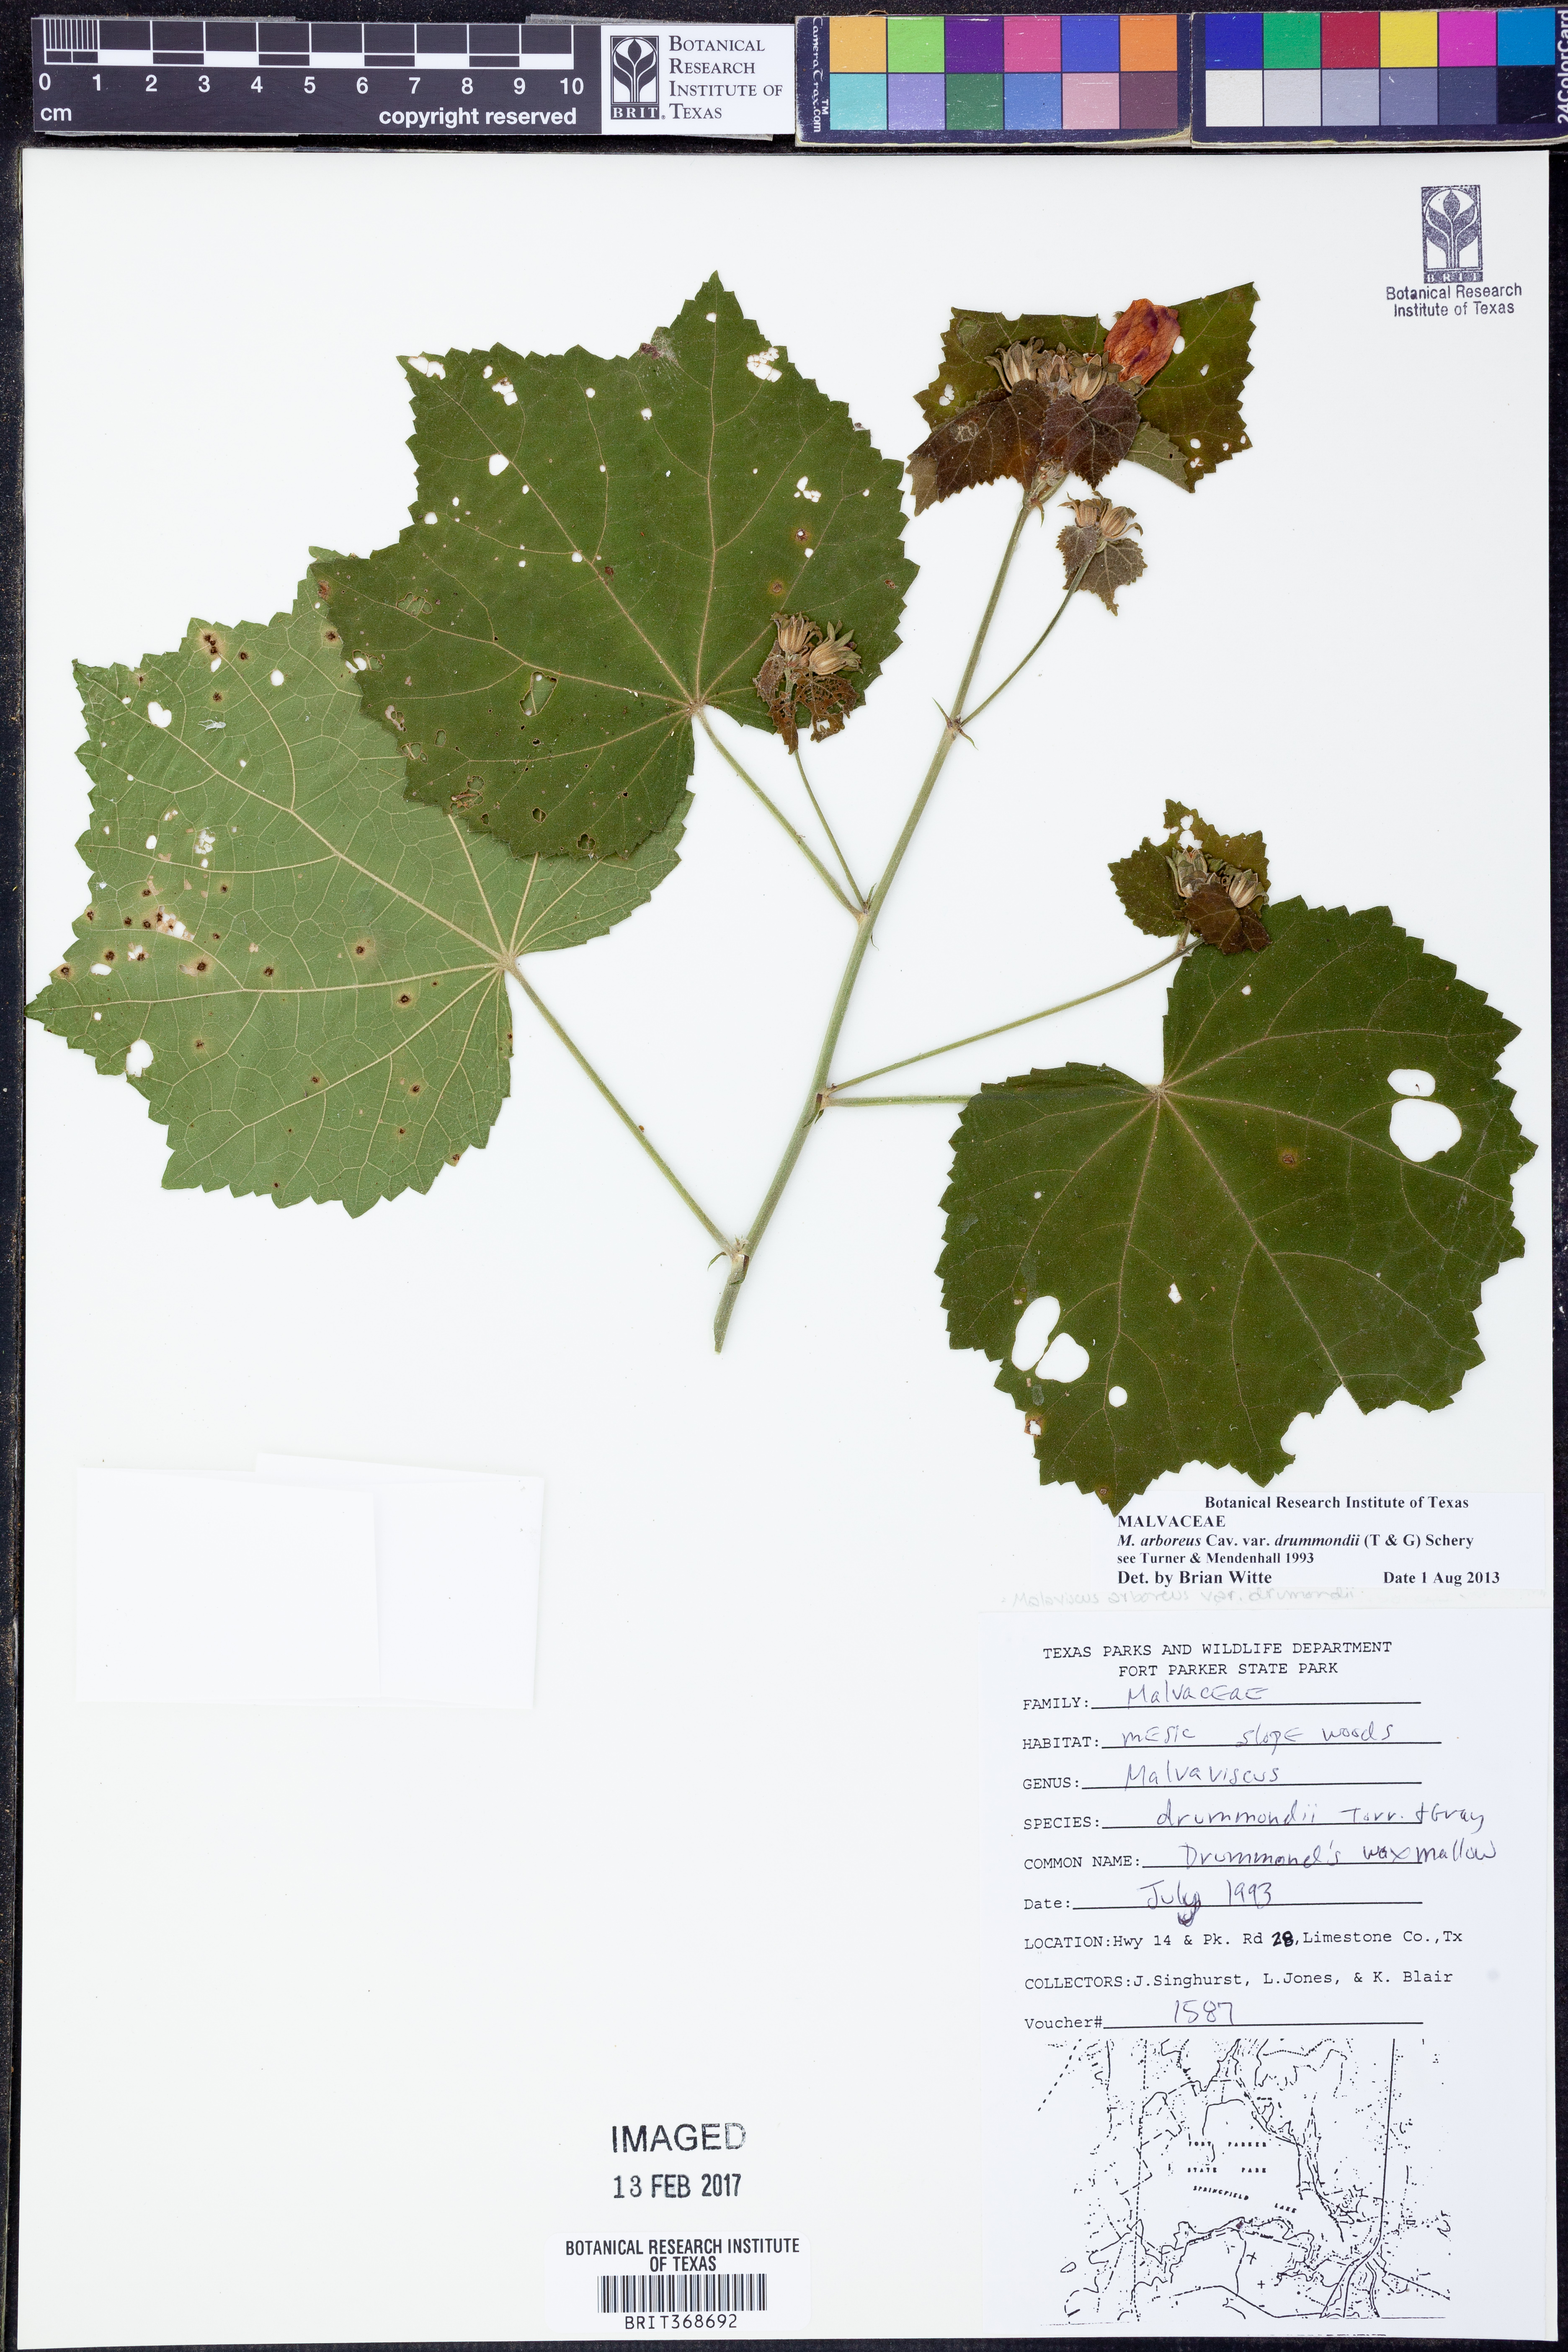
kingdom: Plantae
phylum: Tracheophyta
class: Magnoliopsida
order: Malvales
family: Malvaceae
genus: Malvaviscus
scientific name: Malvaviscus arboreus
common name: Wax mallow
